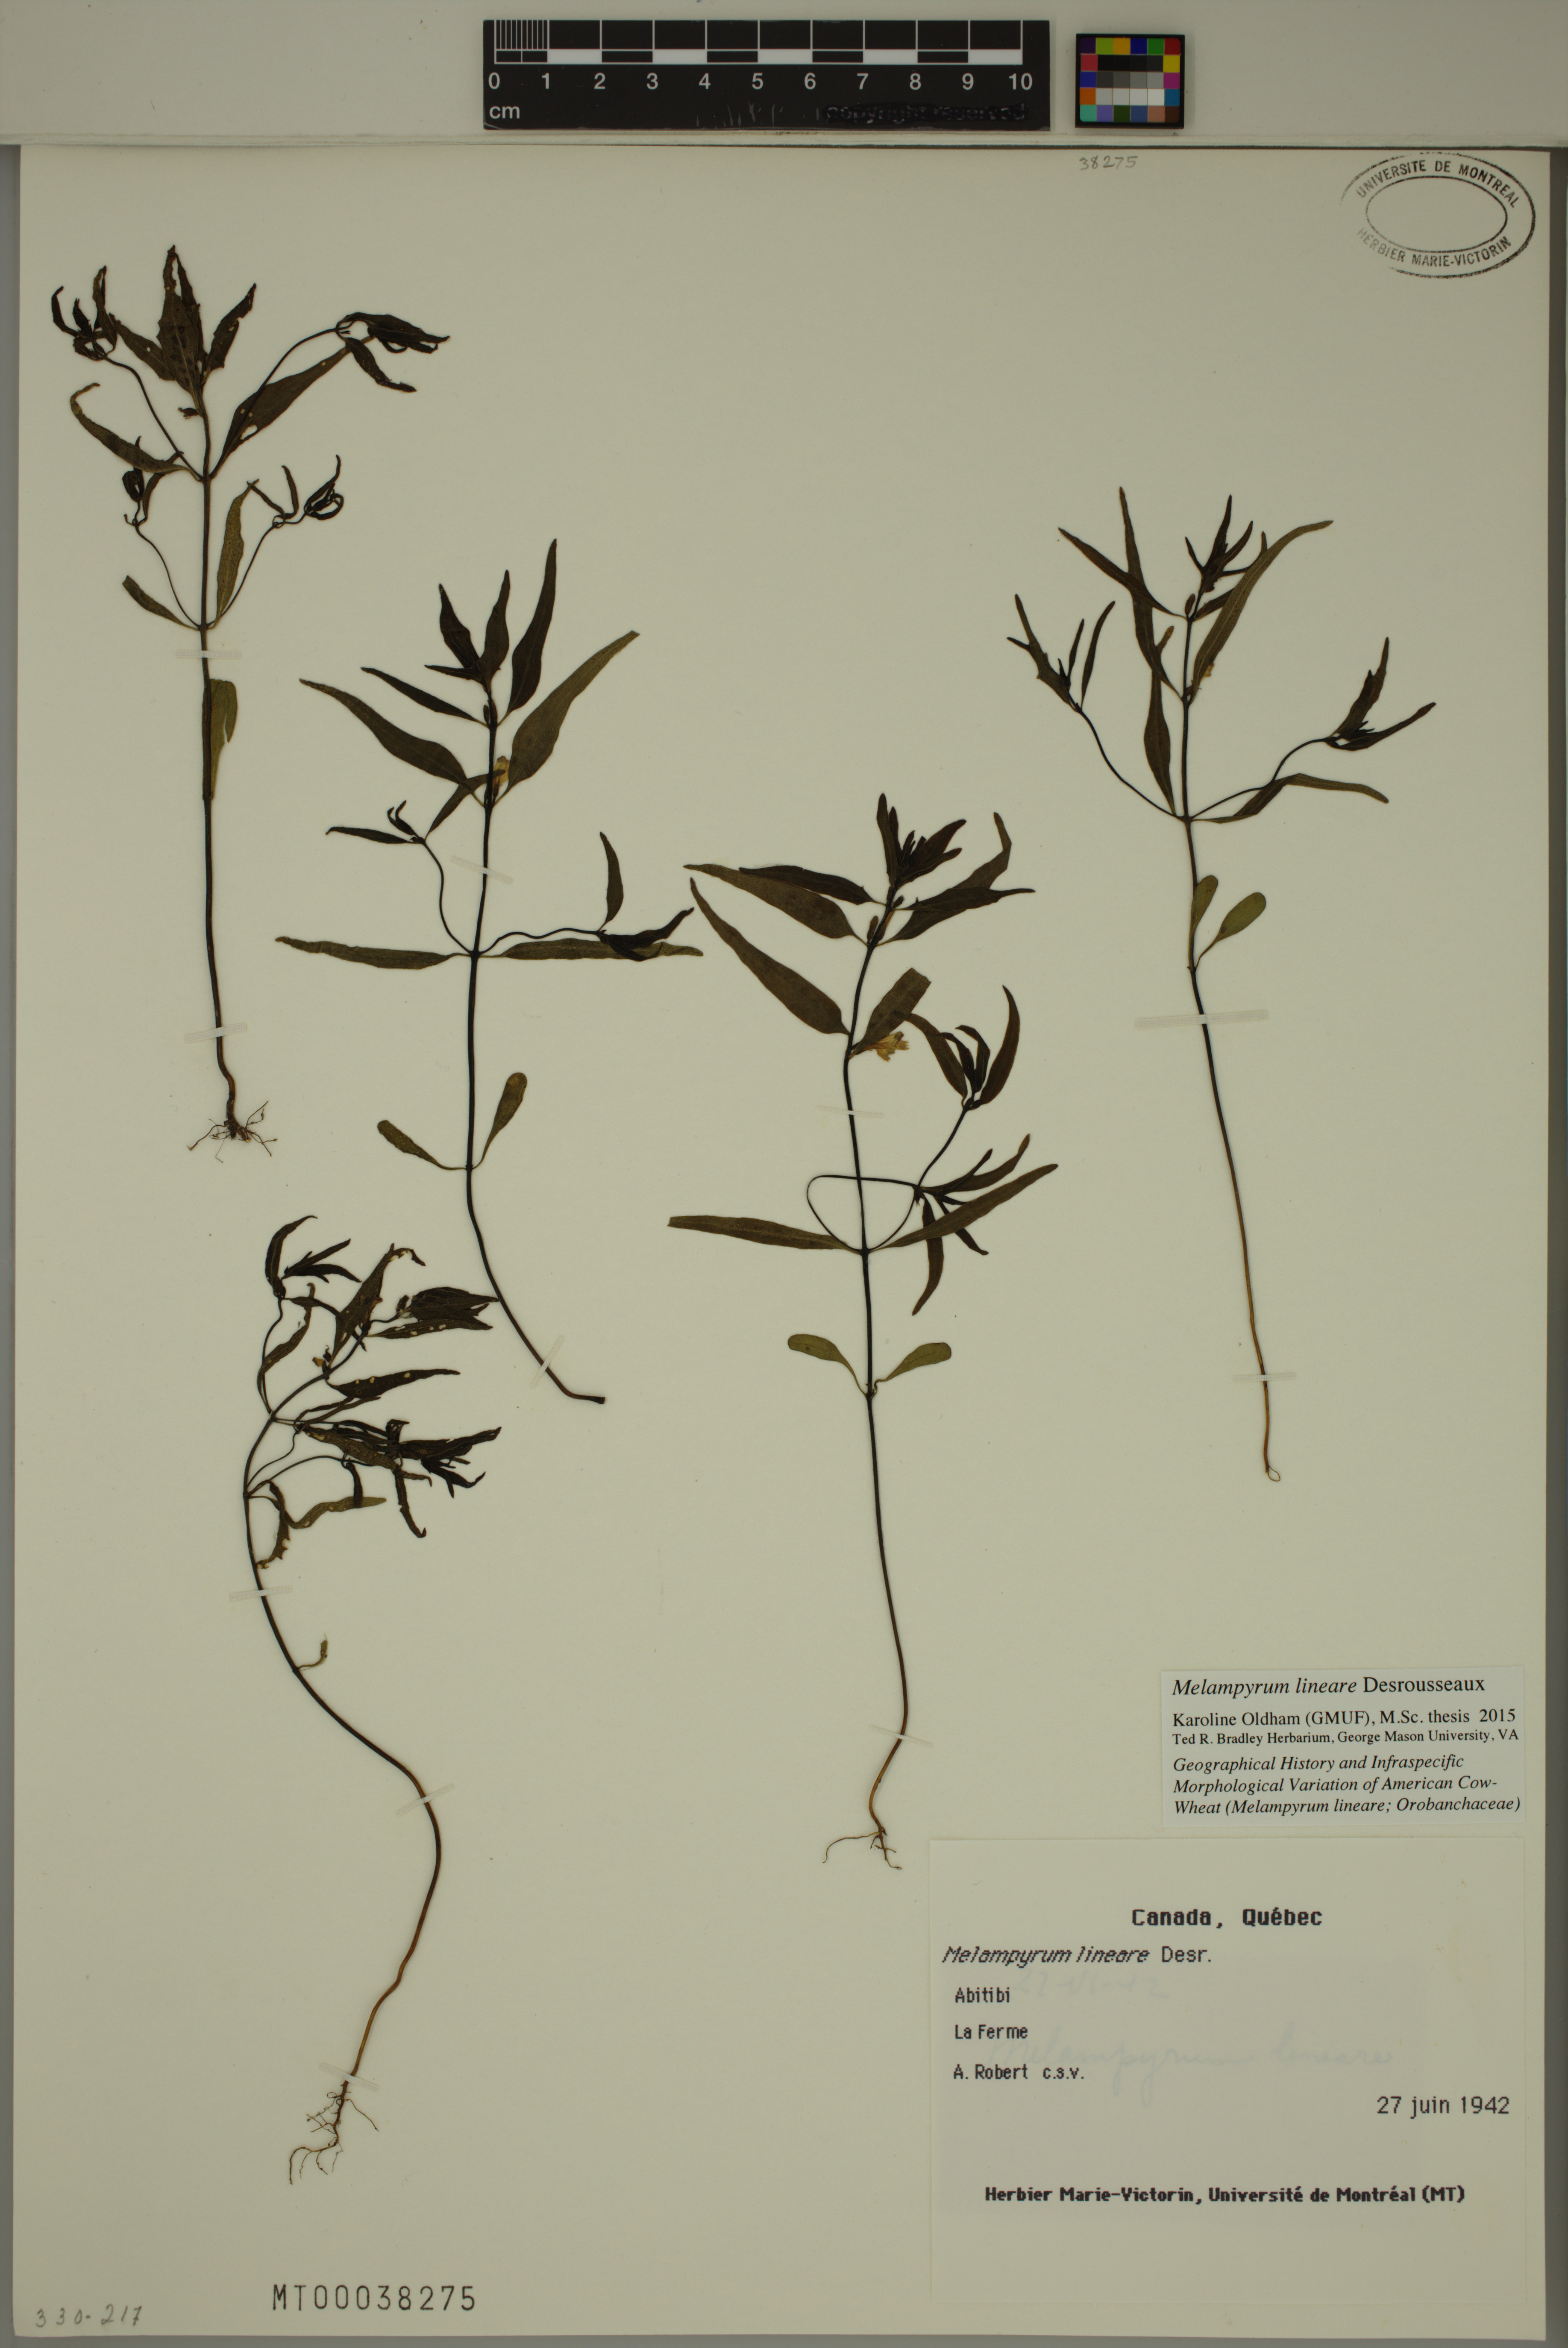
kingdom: Plantae
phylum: Tracheophyta
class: Magnoliopsida
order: Lamiales
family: Orobanchaceae
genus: Melampyrum
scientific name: Melampyrum lineare
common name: American cow-wheat
